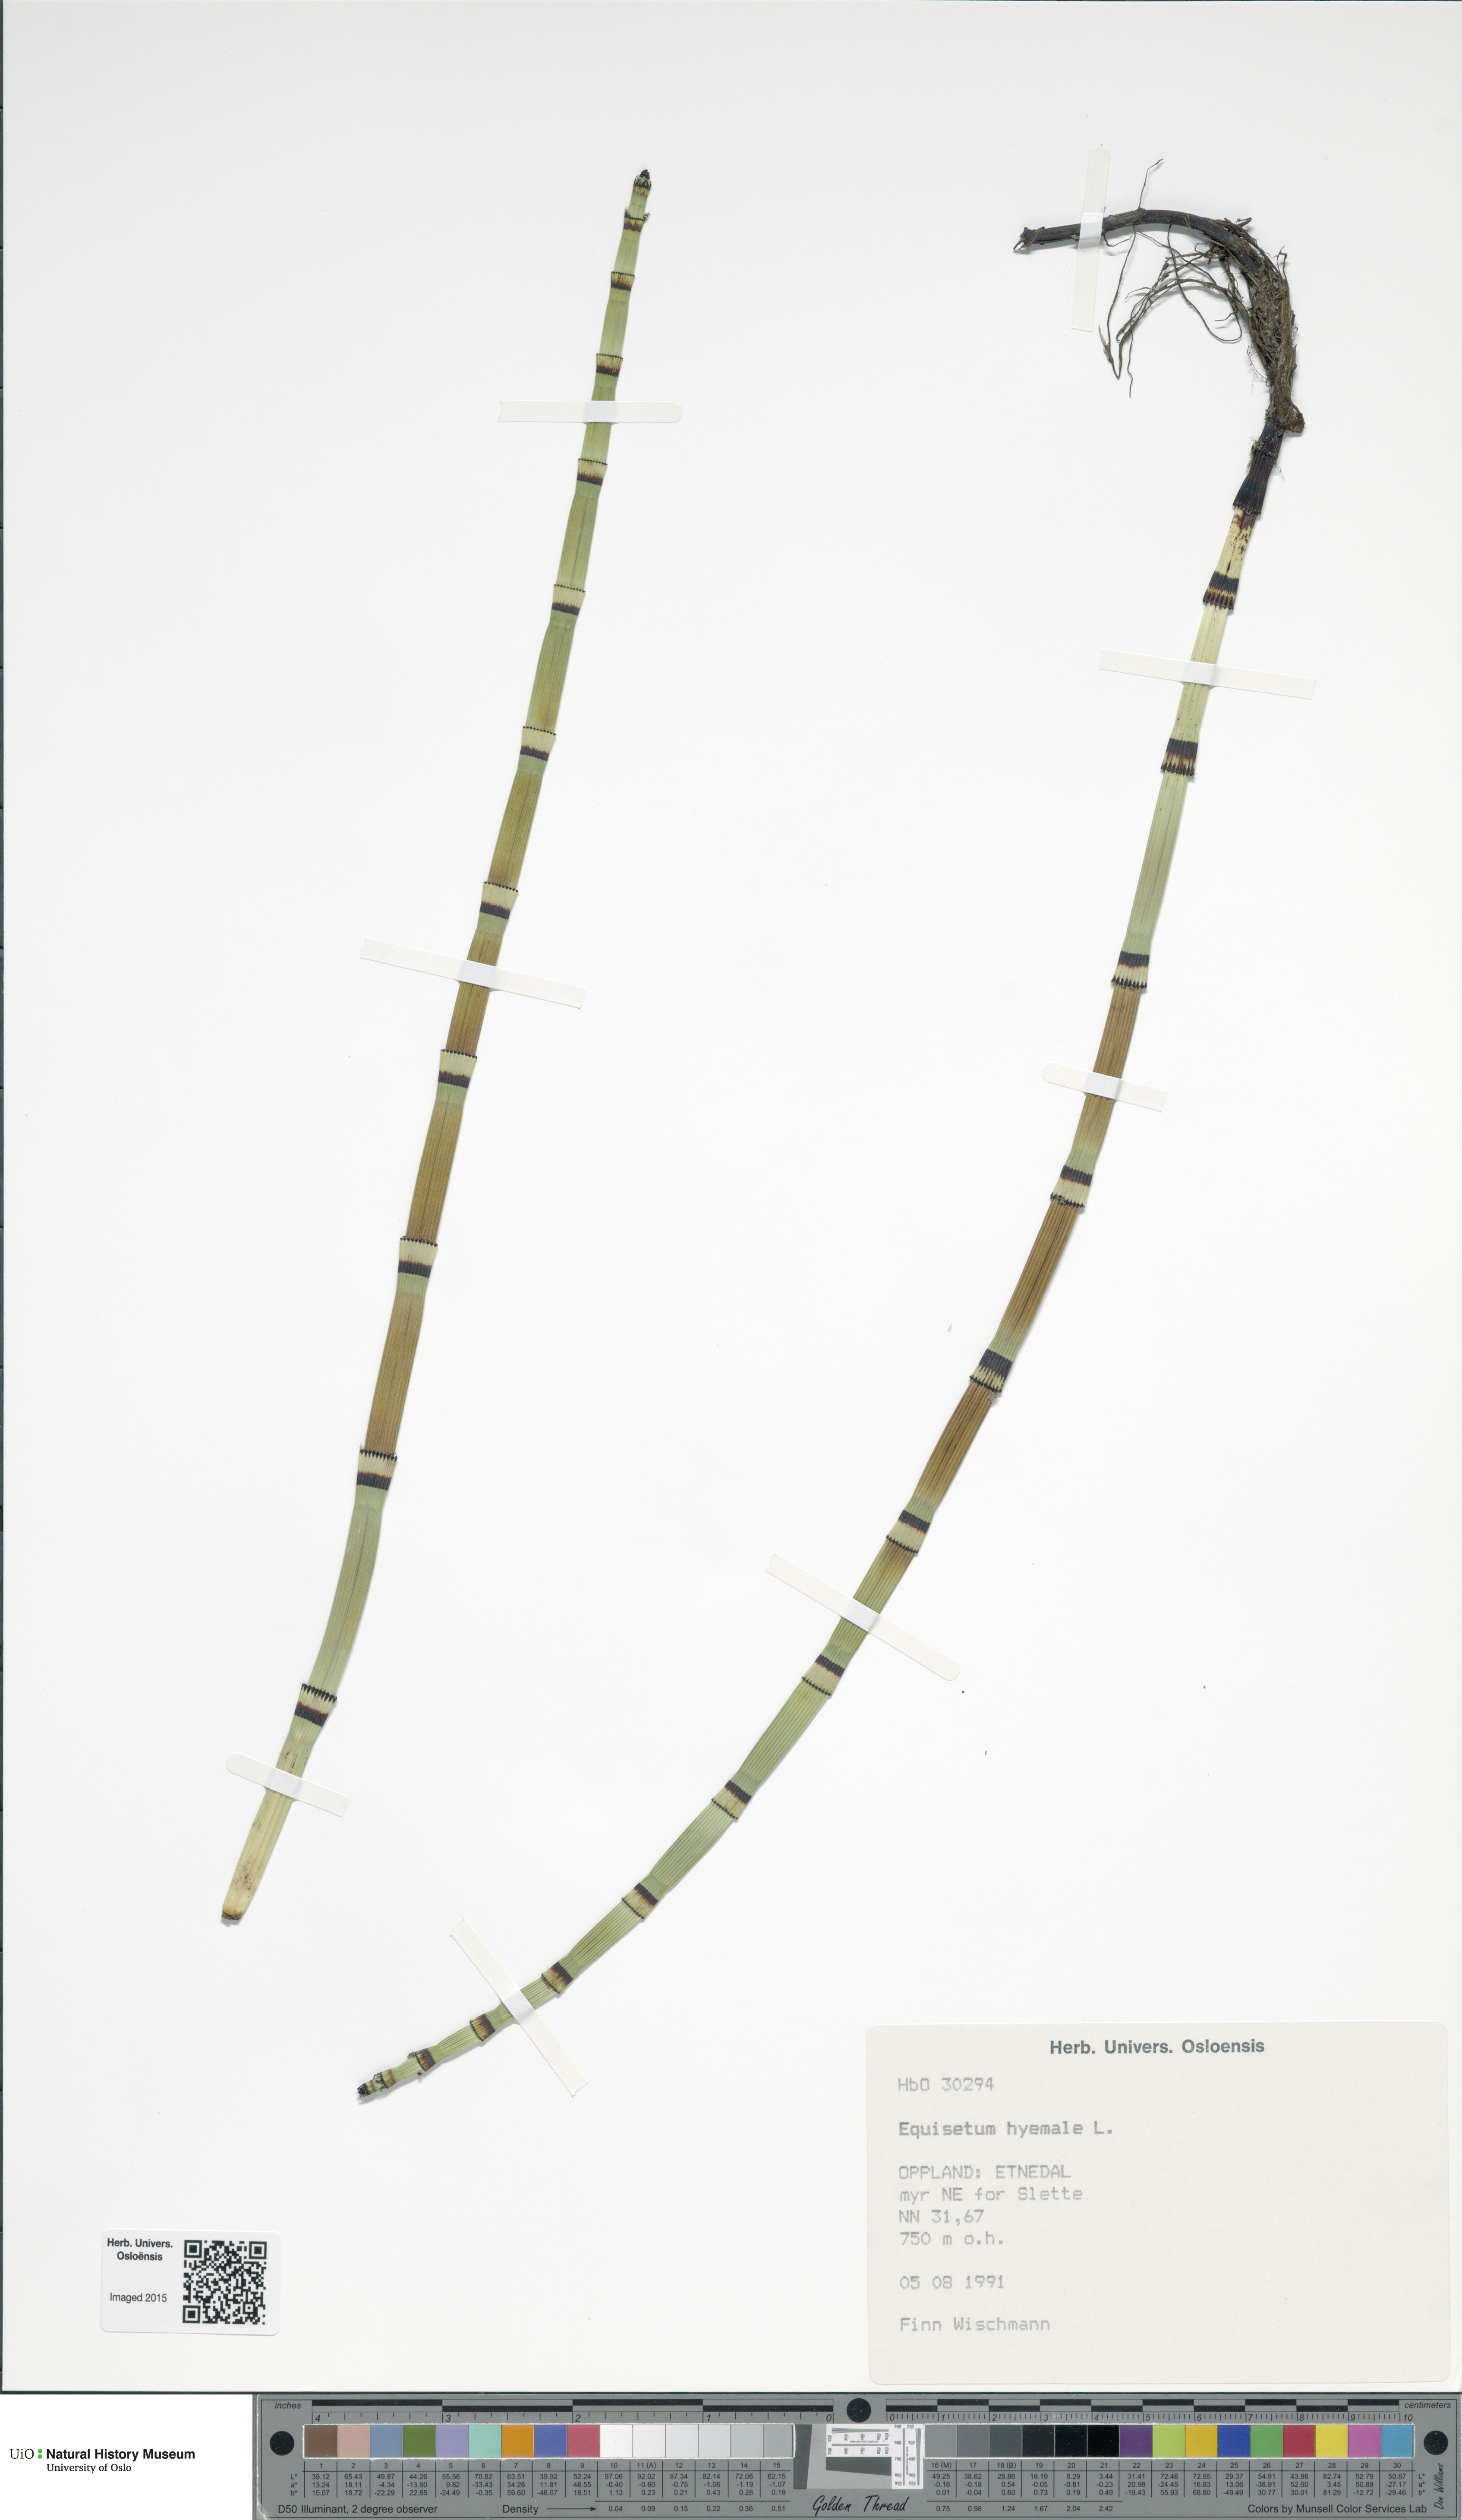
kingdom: Plantae
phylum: Tracheophyta
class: Polypodiopsida
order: Equisetales
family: Equisetaceae
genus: Equisetum
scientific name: Equisetum hyemale
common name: Rough horsetail
